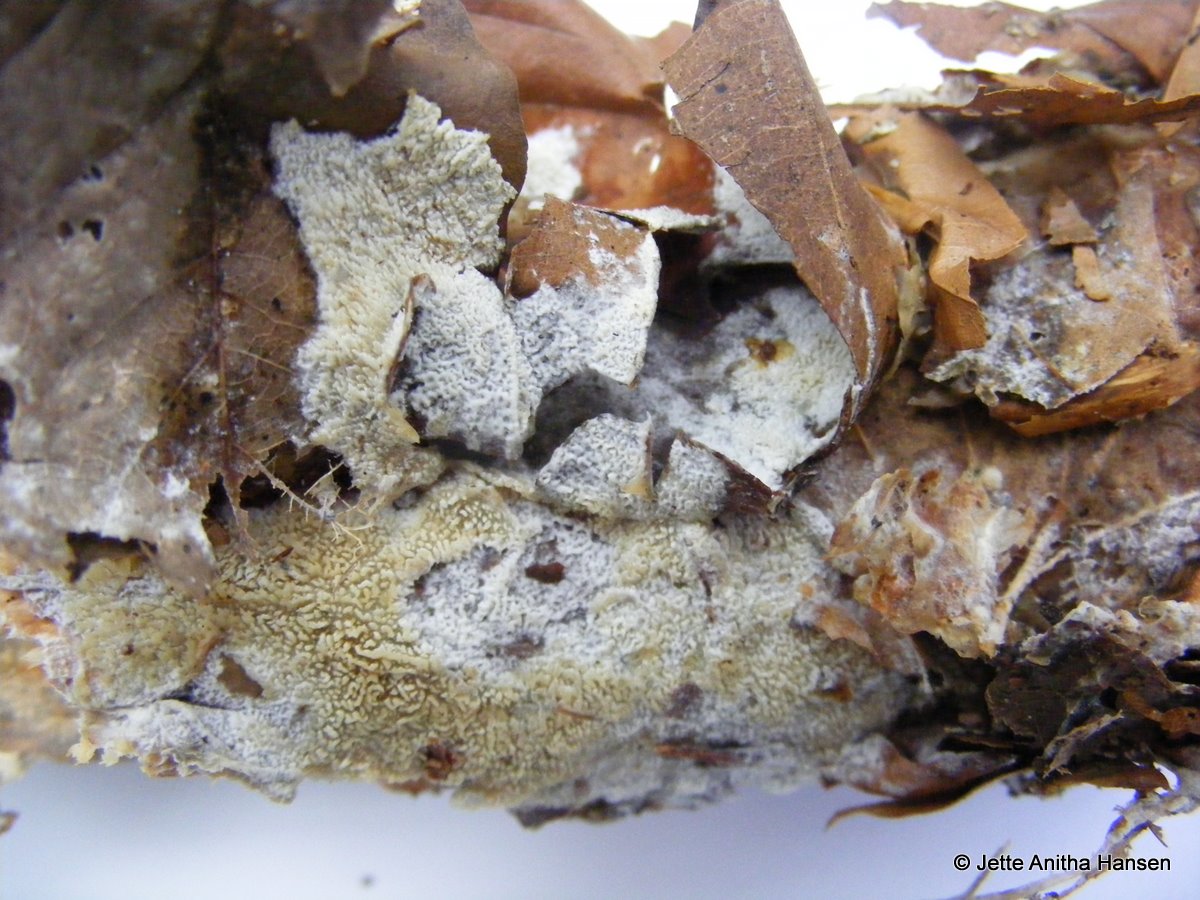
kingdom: Fungi
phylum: Basidiomycota
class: Agaricomycetes
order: Hymenochaetales
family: Schizoporaceae
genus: Schizopora
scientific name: Schizopora paradoxa
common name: hvid tandsvamp
